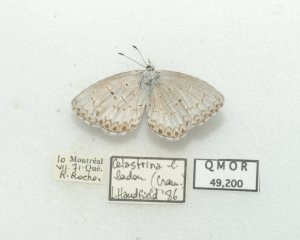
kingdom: Animalia
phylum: Arthropoda
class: Insecta
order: Lepidoptera
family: Lycaenidae
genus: Cyaniris
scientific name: Cyaniris neglecta
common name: Summer Azure
